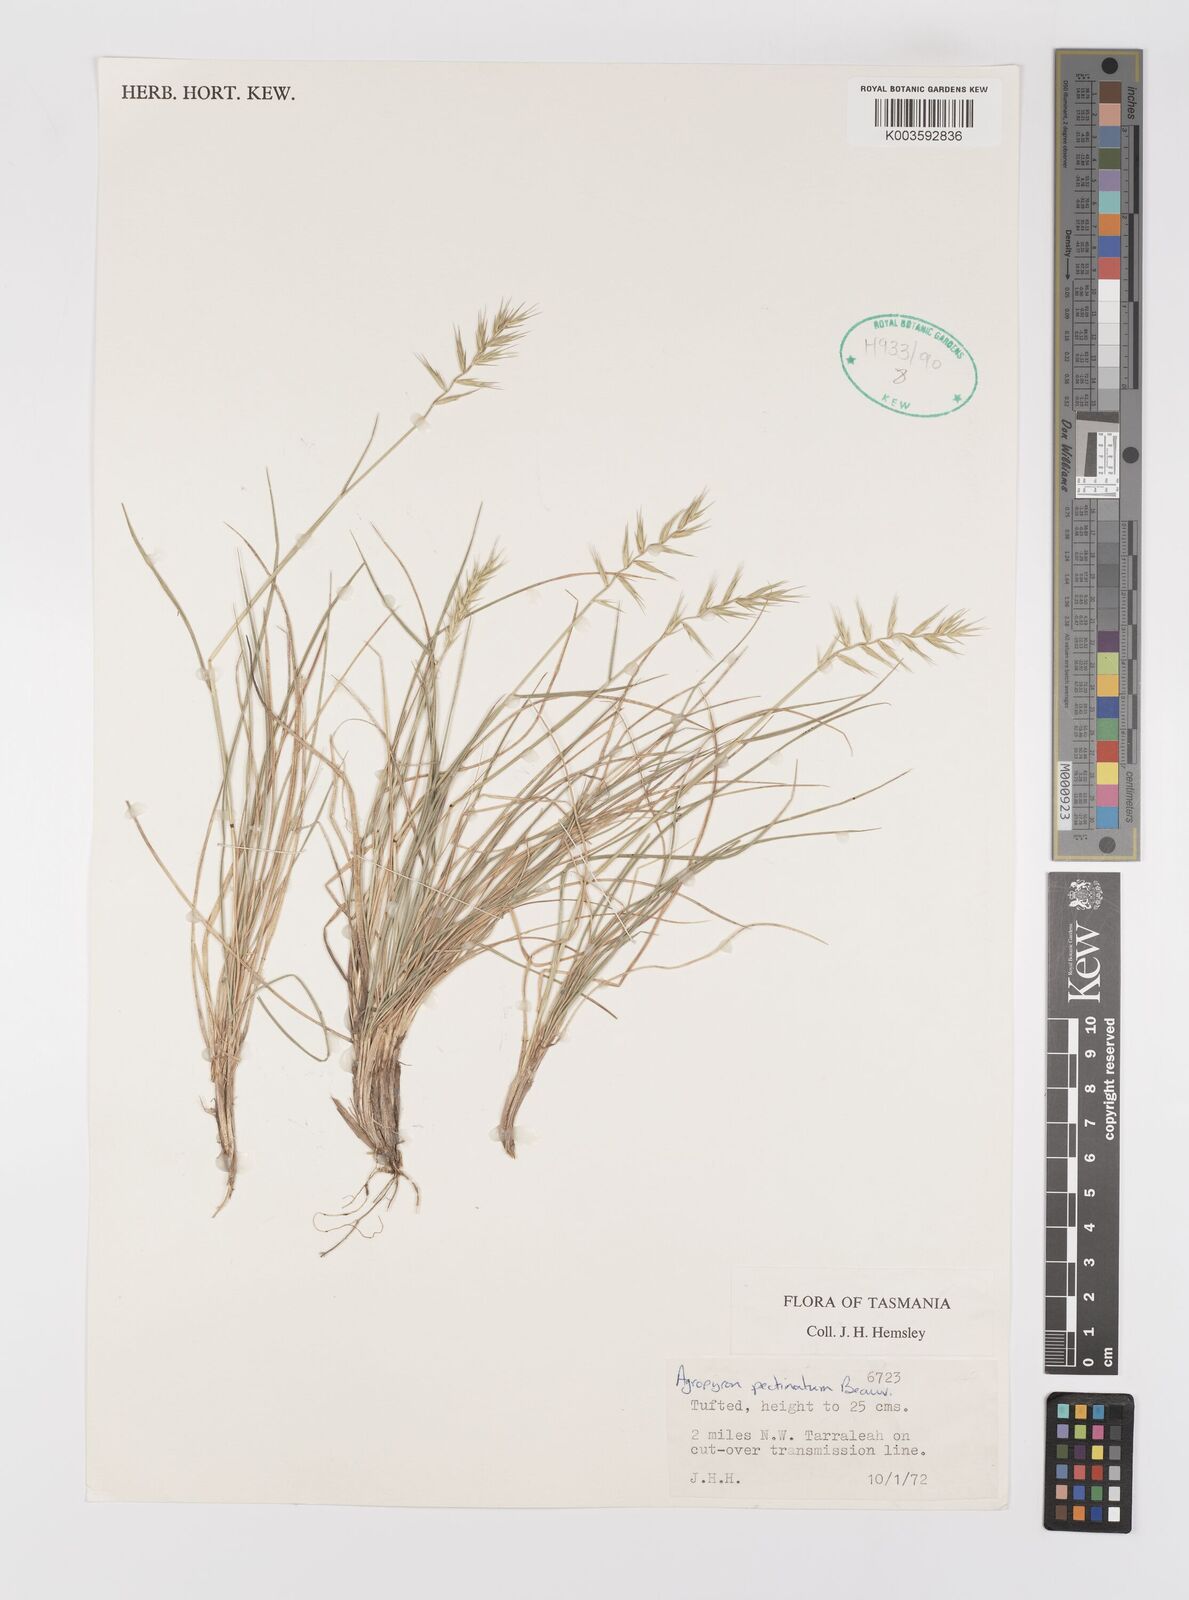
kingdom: Plantae
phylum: Tracheophyta
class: Liliopsida
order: Poales
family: Poaceae
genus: Australopyrum
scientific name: Australopyrum pectinatum
